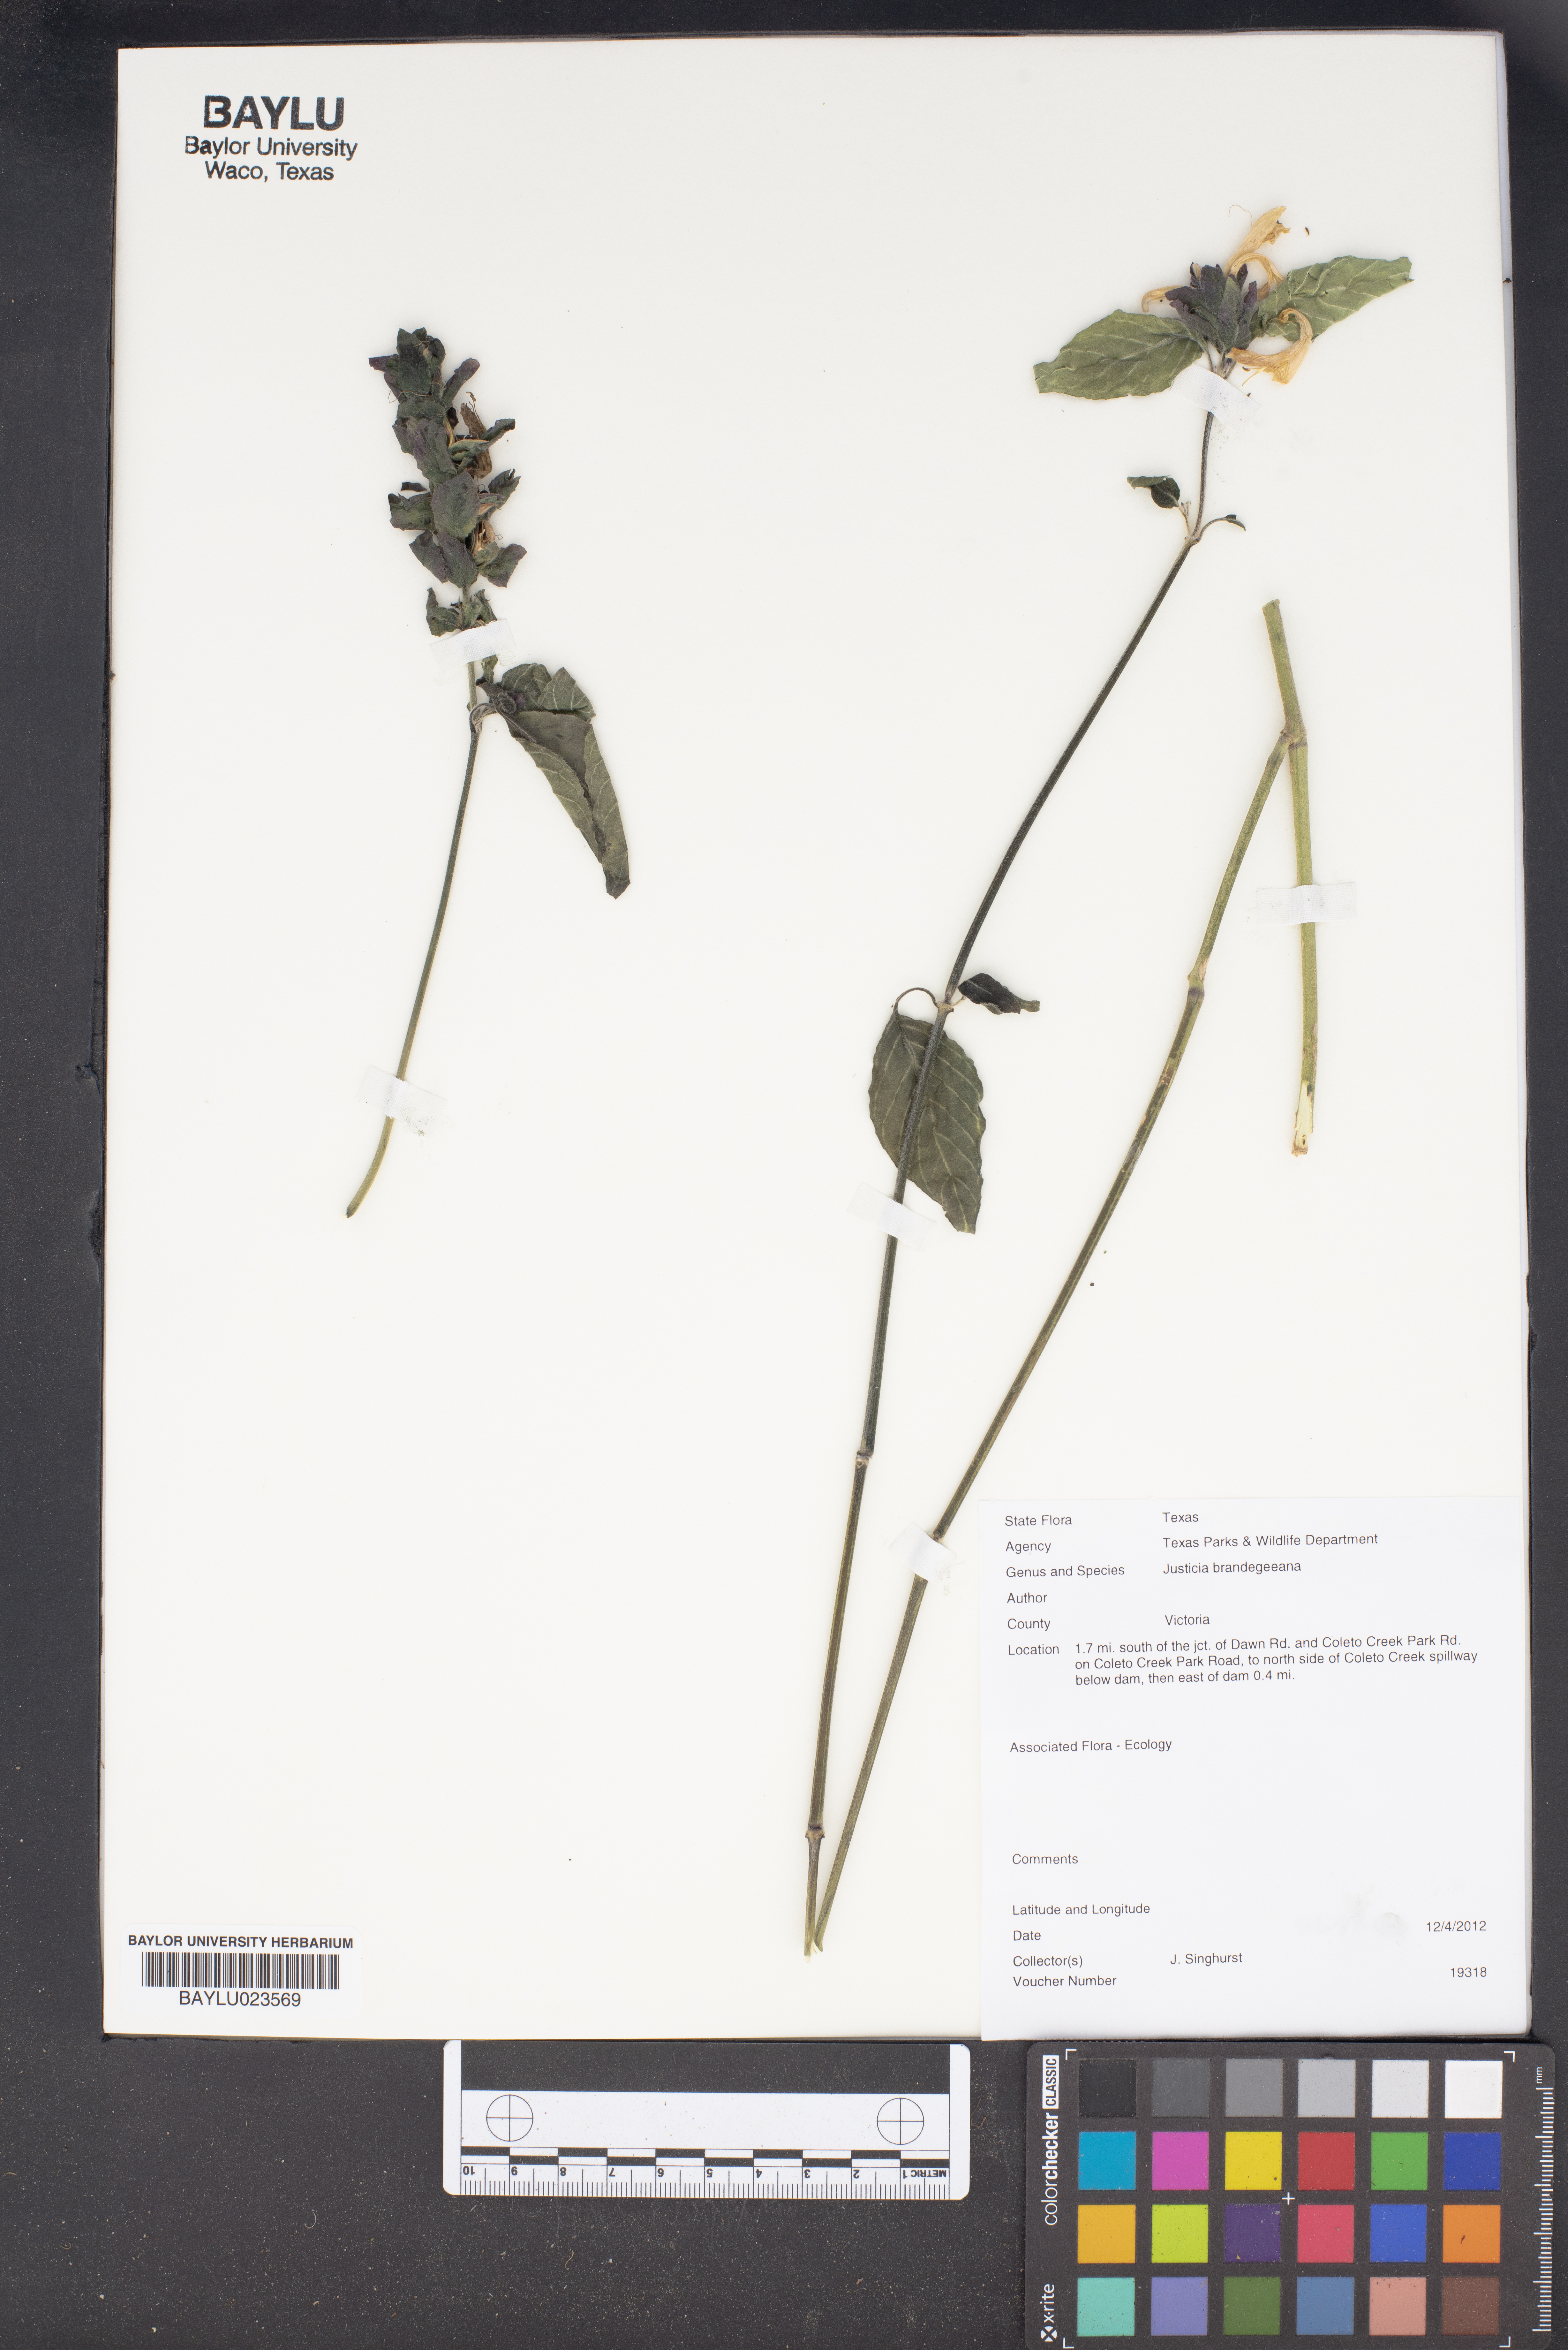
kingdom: Plantae
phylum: Tracheophyta
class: Magnoliopsida
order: Lamiales
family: Acanthaceae
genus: Justicia
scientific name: Justicia brandegeeana
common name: Shrimpplant
